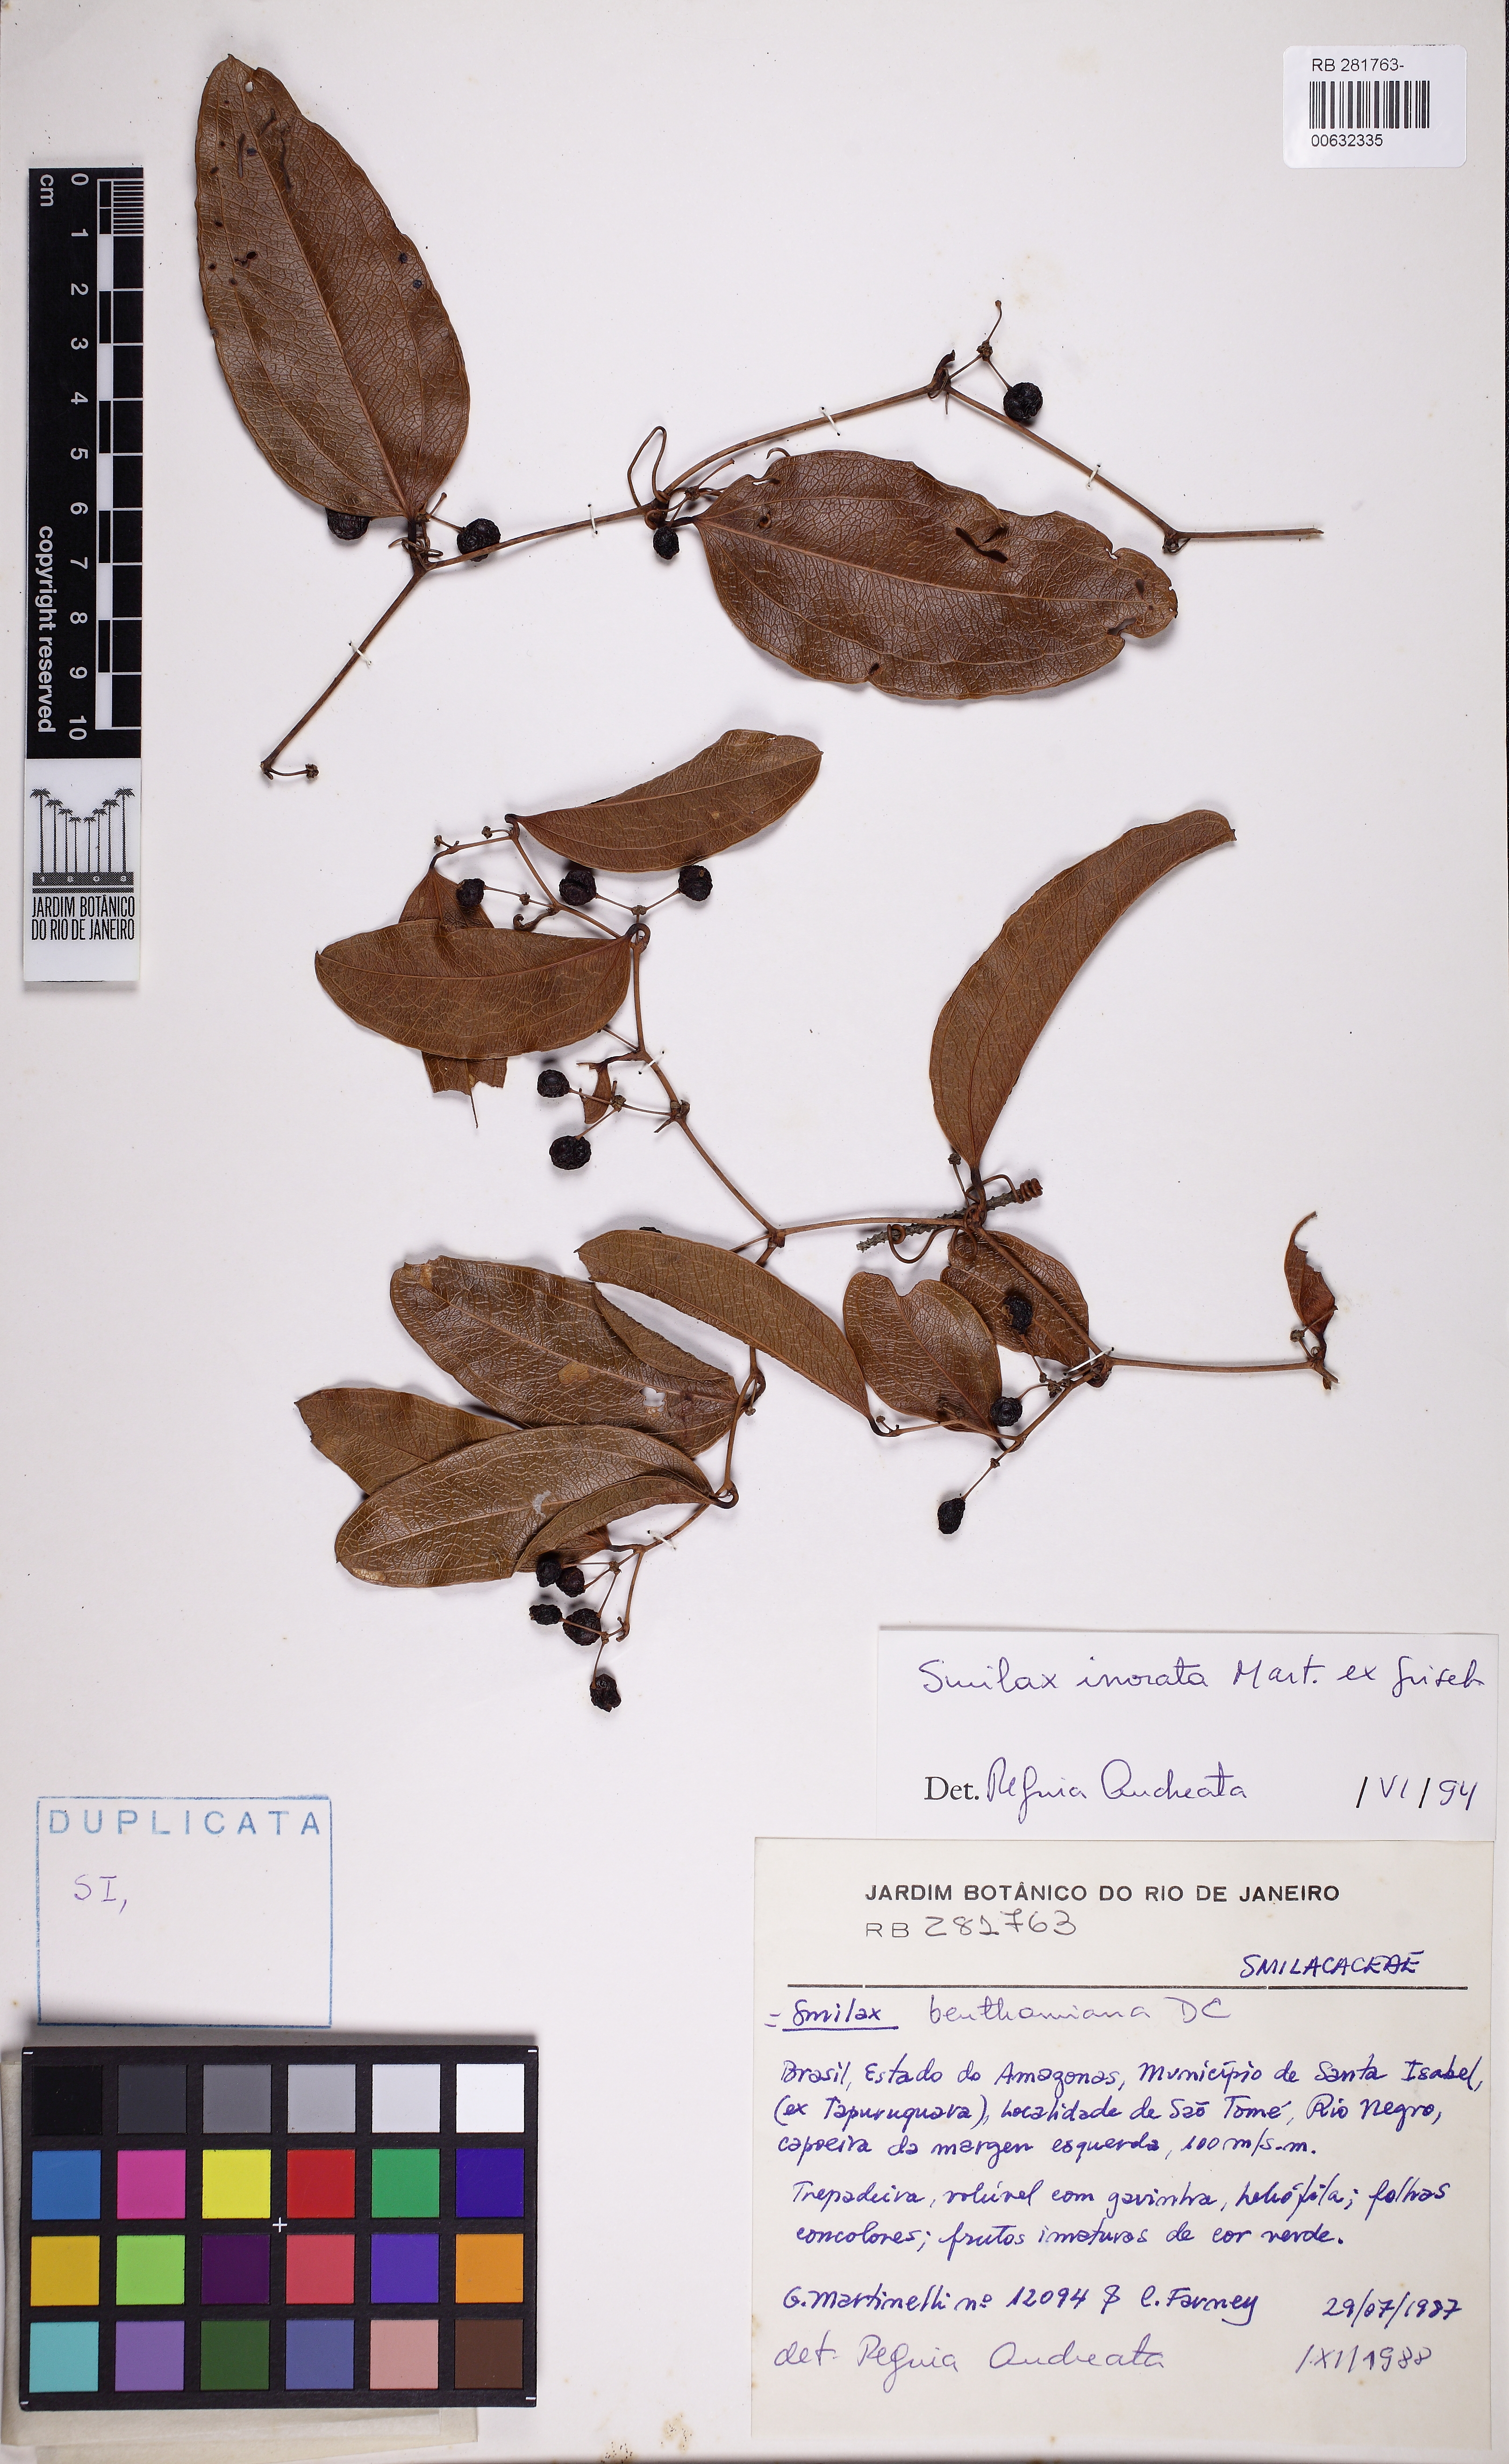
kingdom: Plantae
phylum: Tracheophyta
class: Liliopsida
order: Liliales
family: Smilacaceae
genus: Smilax
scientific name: Smilax irrorata
